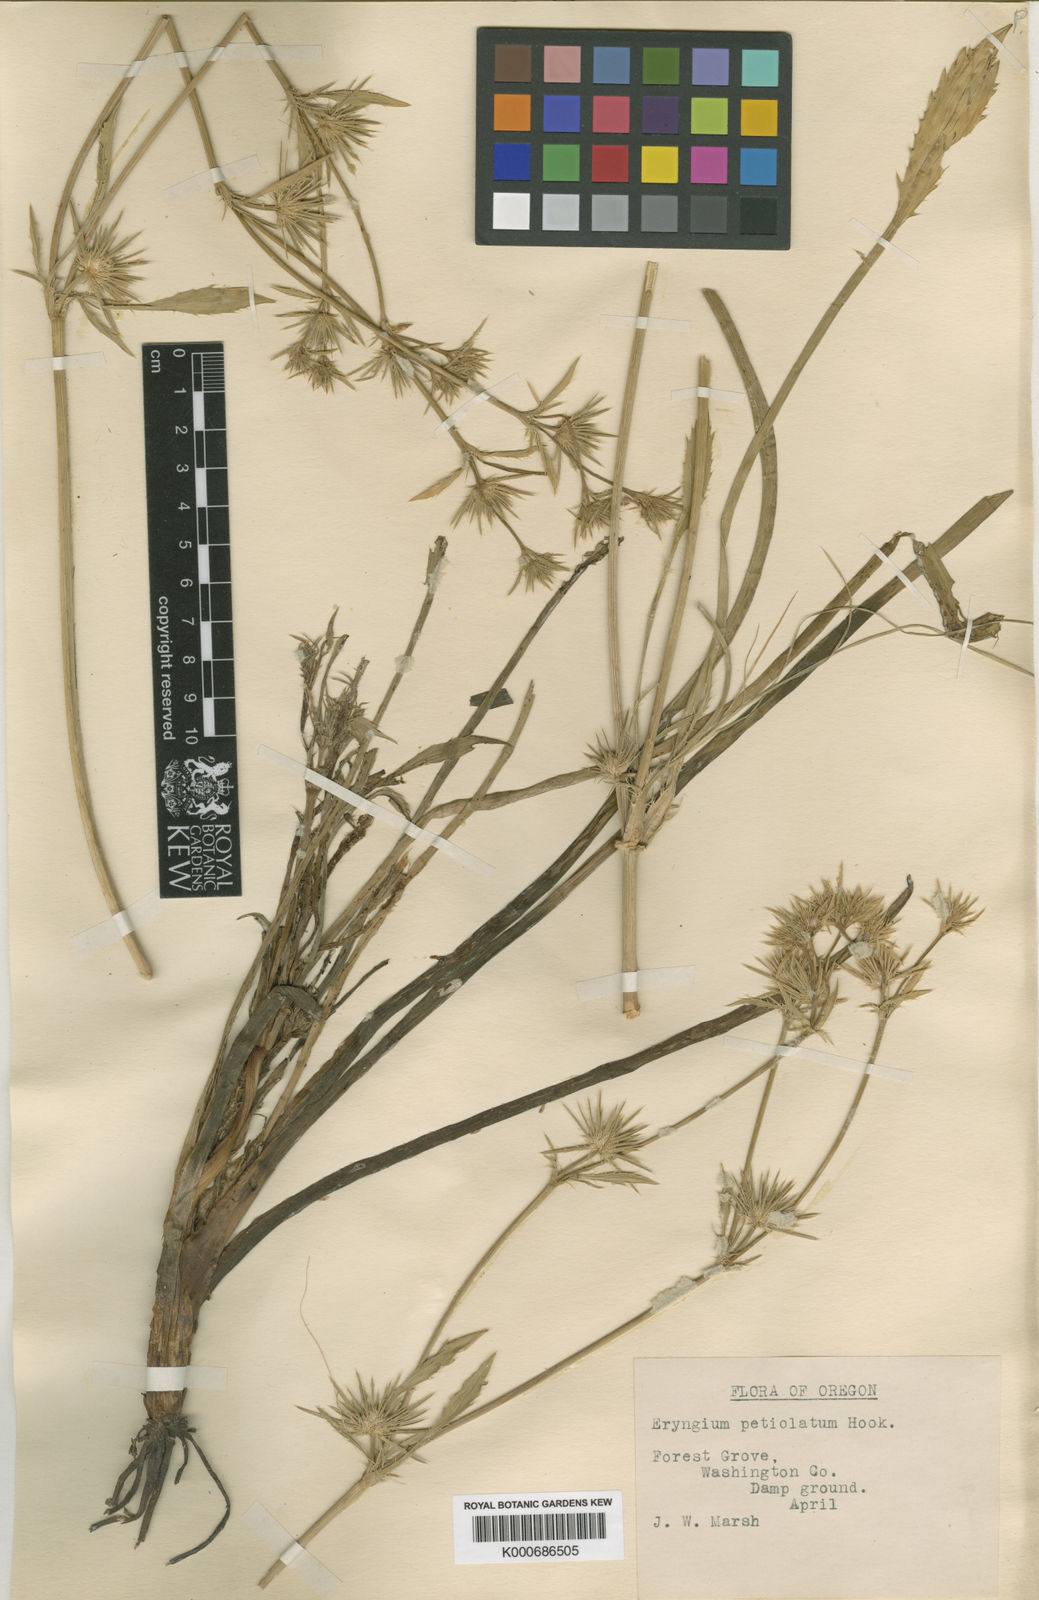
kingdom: Plantae
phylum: Tracheophyta
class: Magnoliopsida
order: Apiales
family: Apiaceae
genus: Eryngium
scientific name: Eryngium petiolatum
